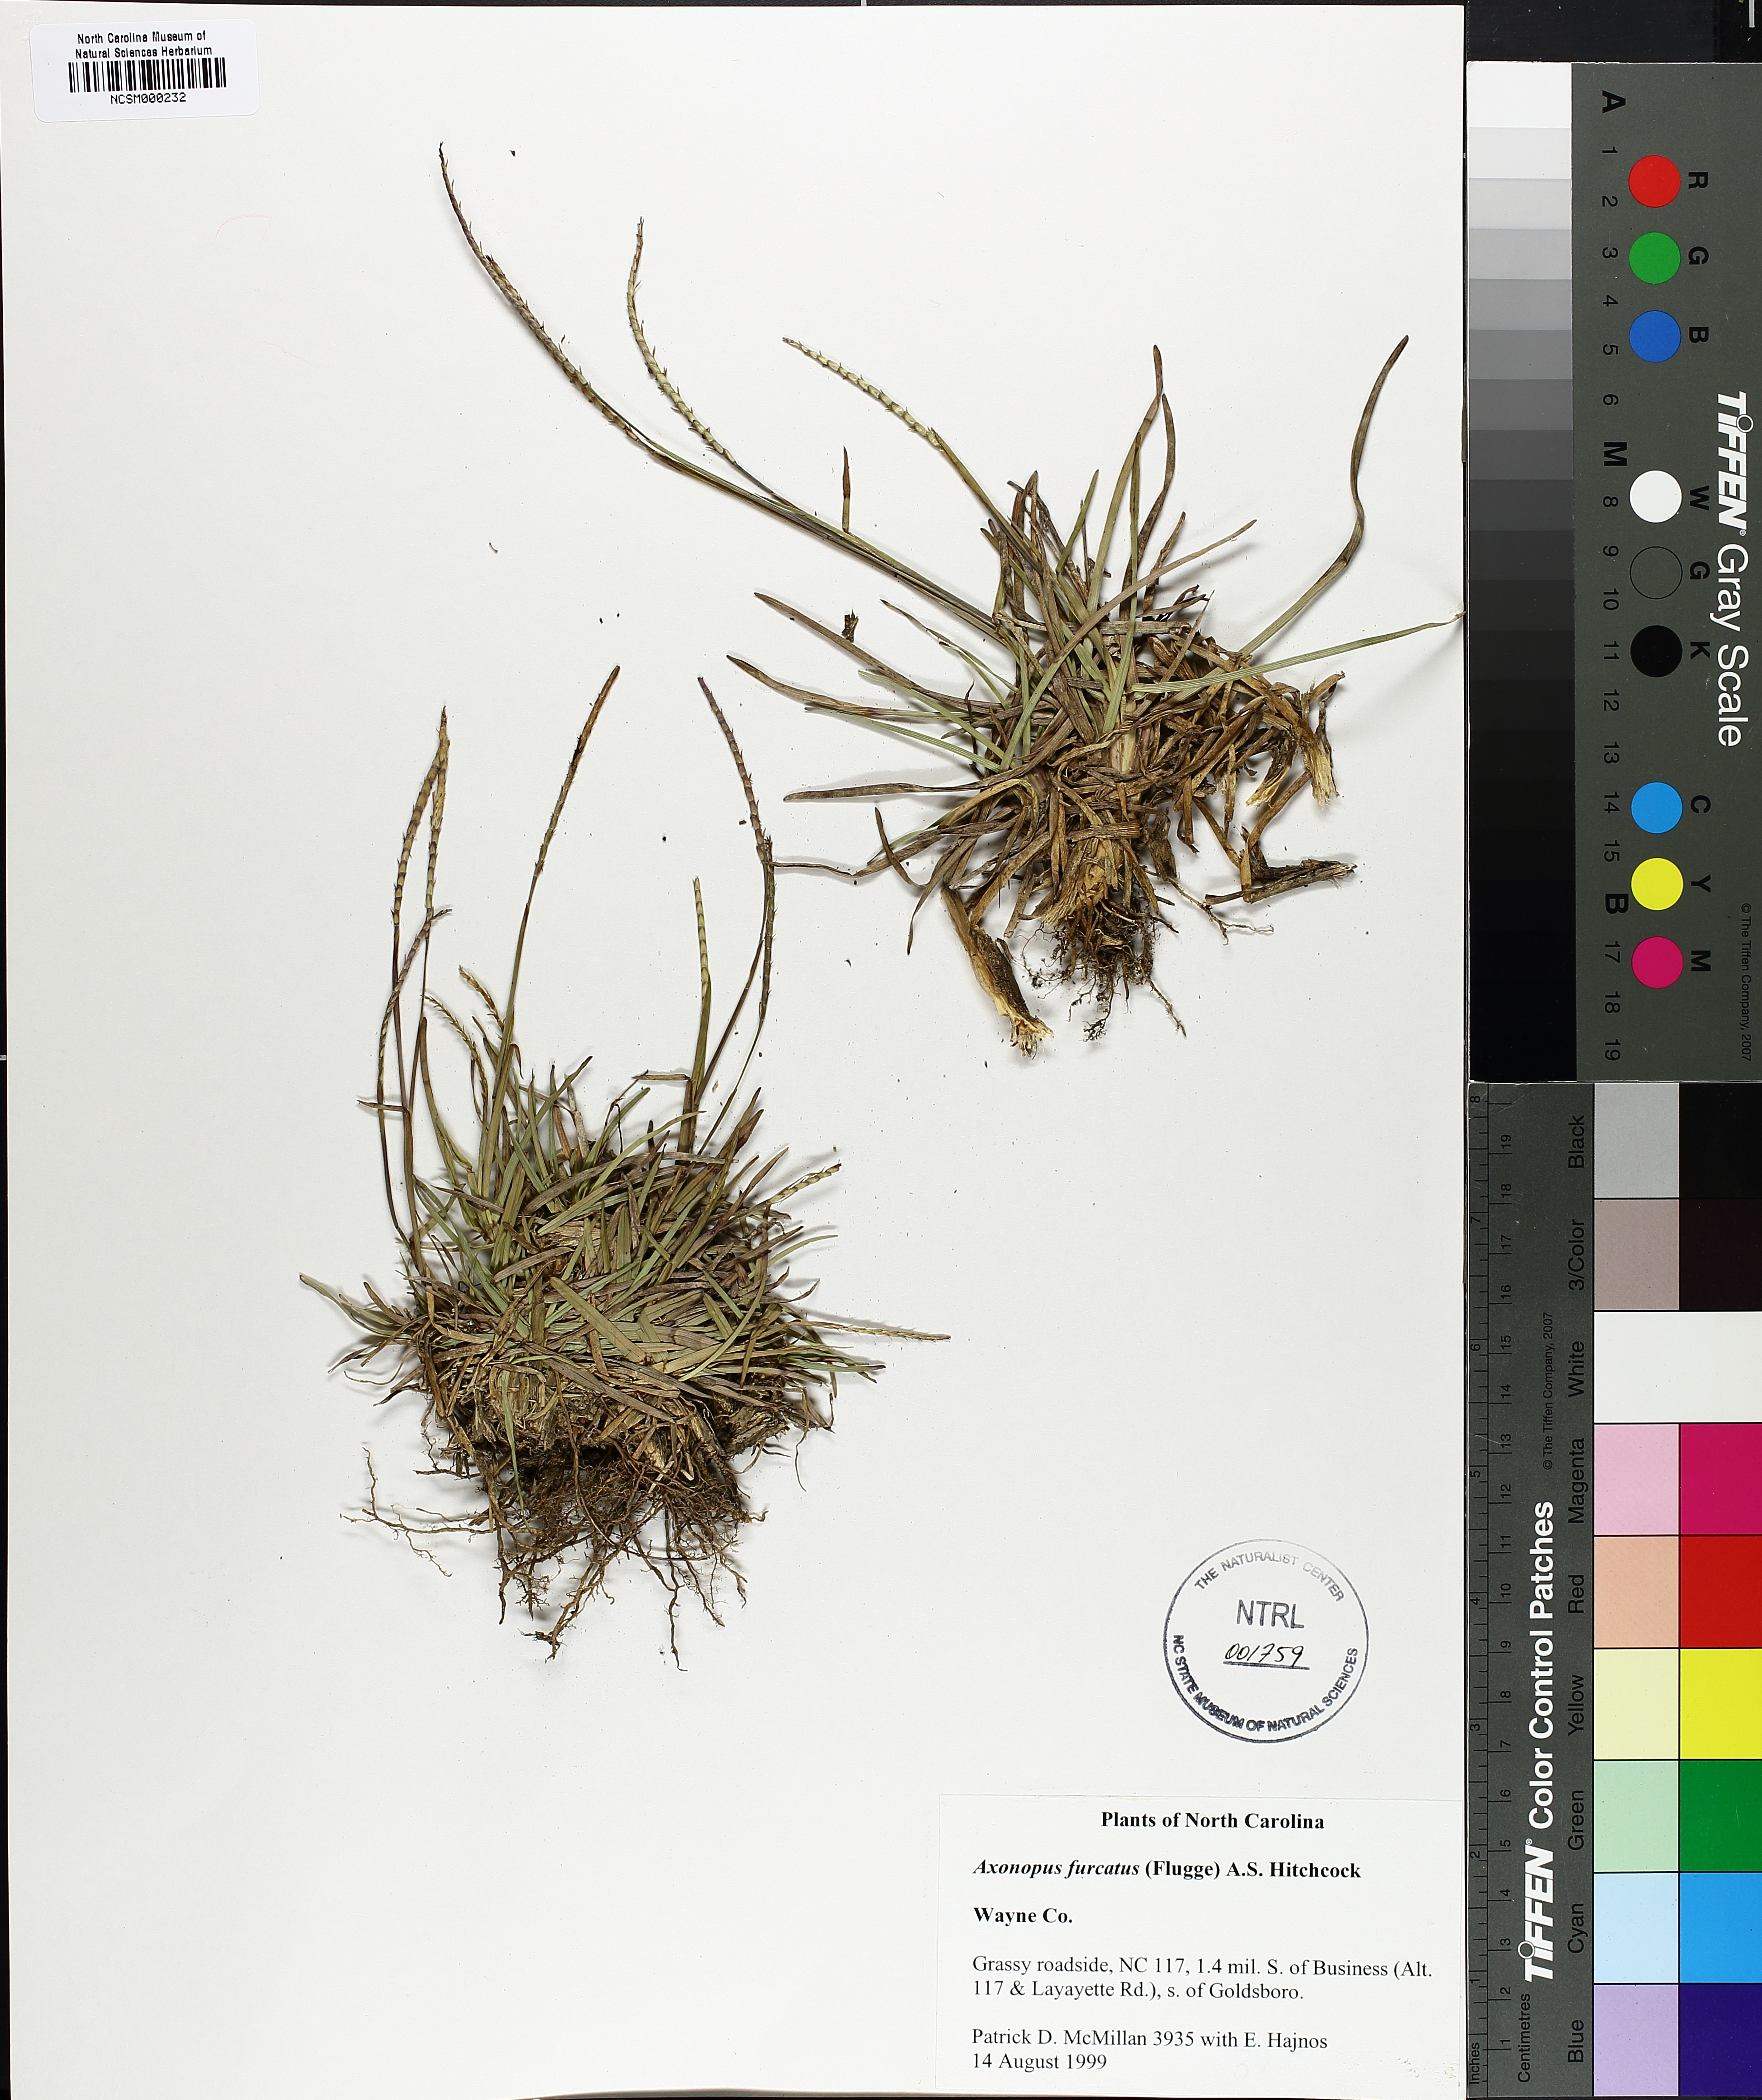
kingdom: Plantae
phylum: Tracheophyta
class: Liliopsida
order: Poales
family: Poaceae
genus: Axonopus
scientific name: Axonopus furcatus
